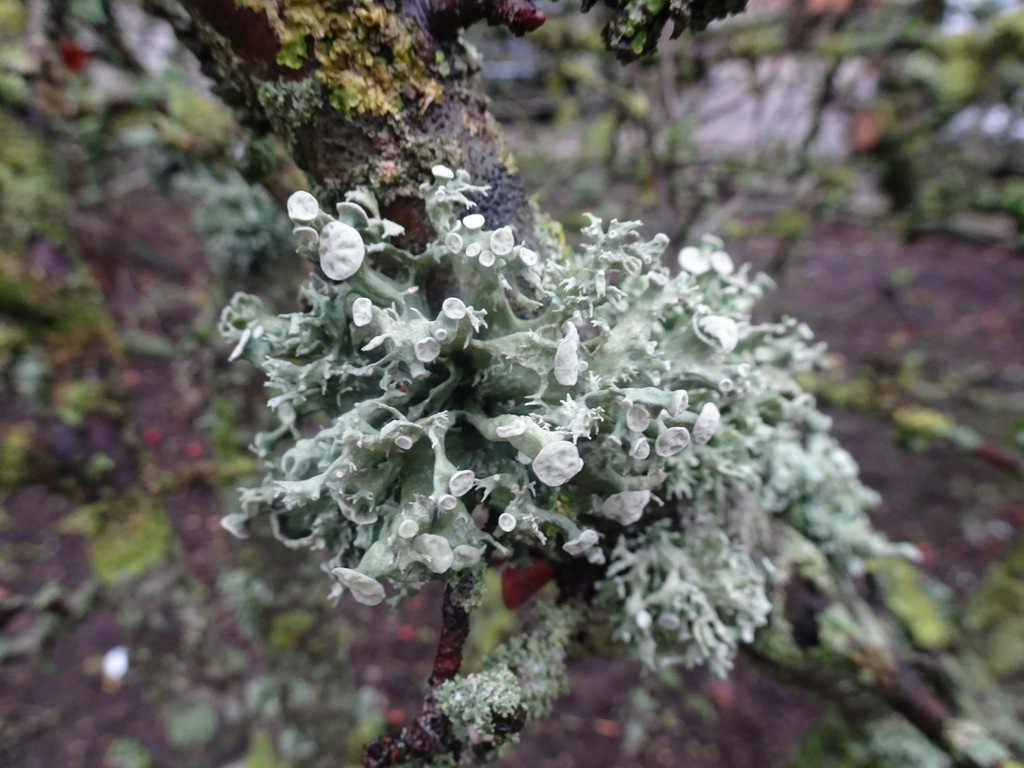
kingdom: Fungi
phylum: Ascomycota
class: Lecanoromycetes
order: Lecanorales
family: Ramalinaceae
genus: Ramalina
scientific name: Ramalina fastigiata
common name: tue-grenlav
